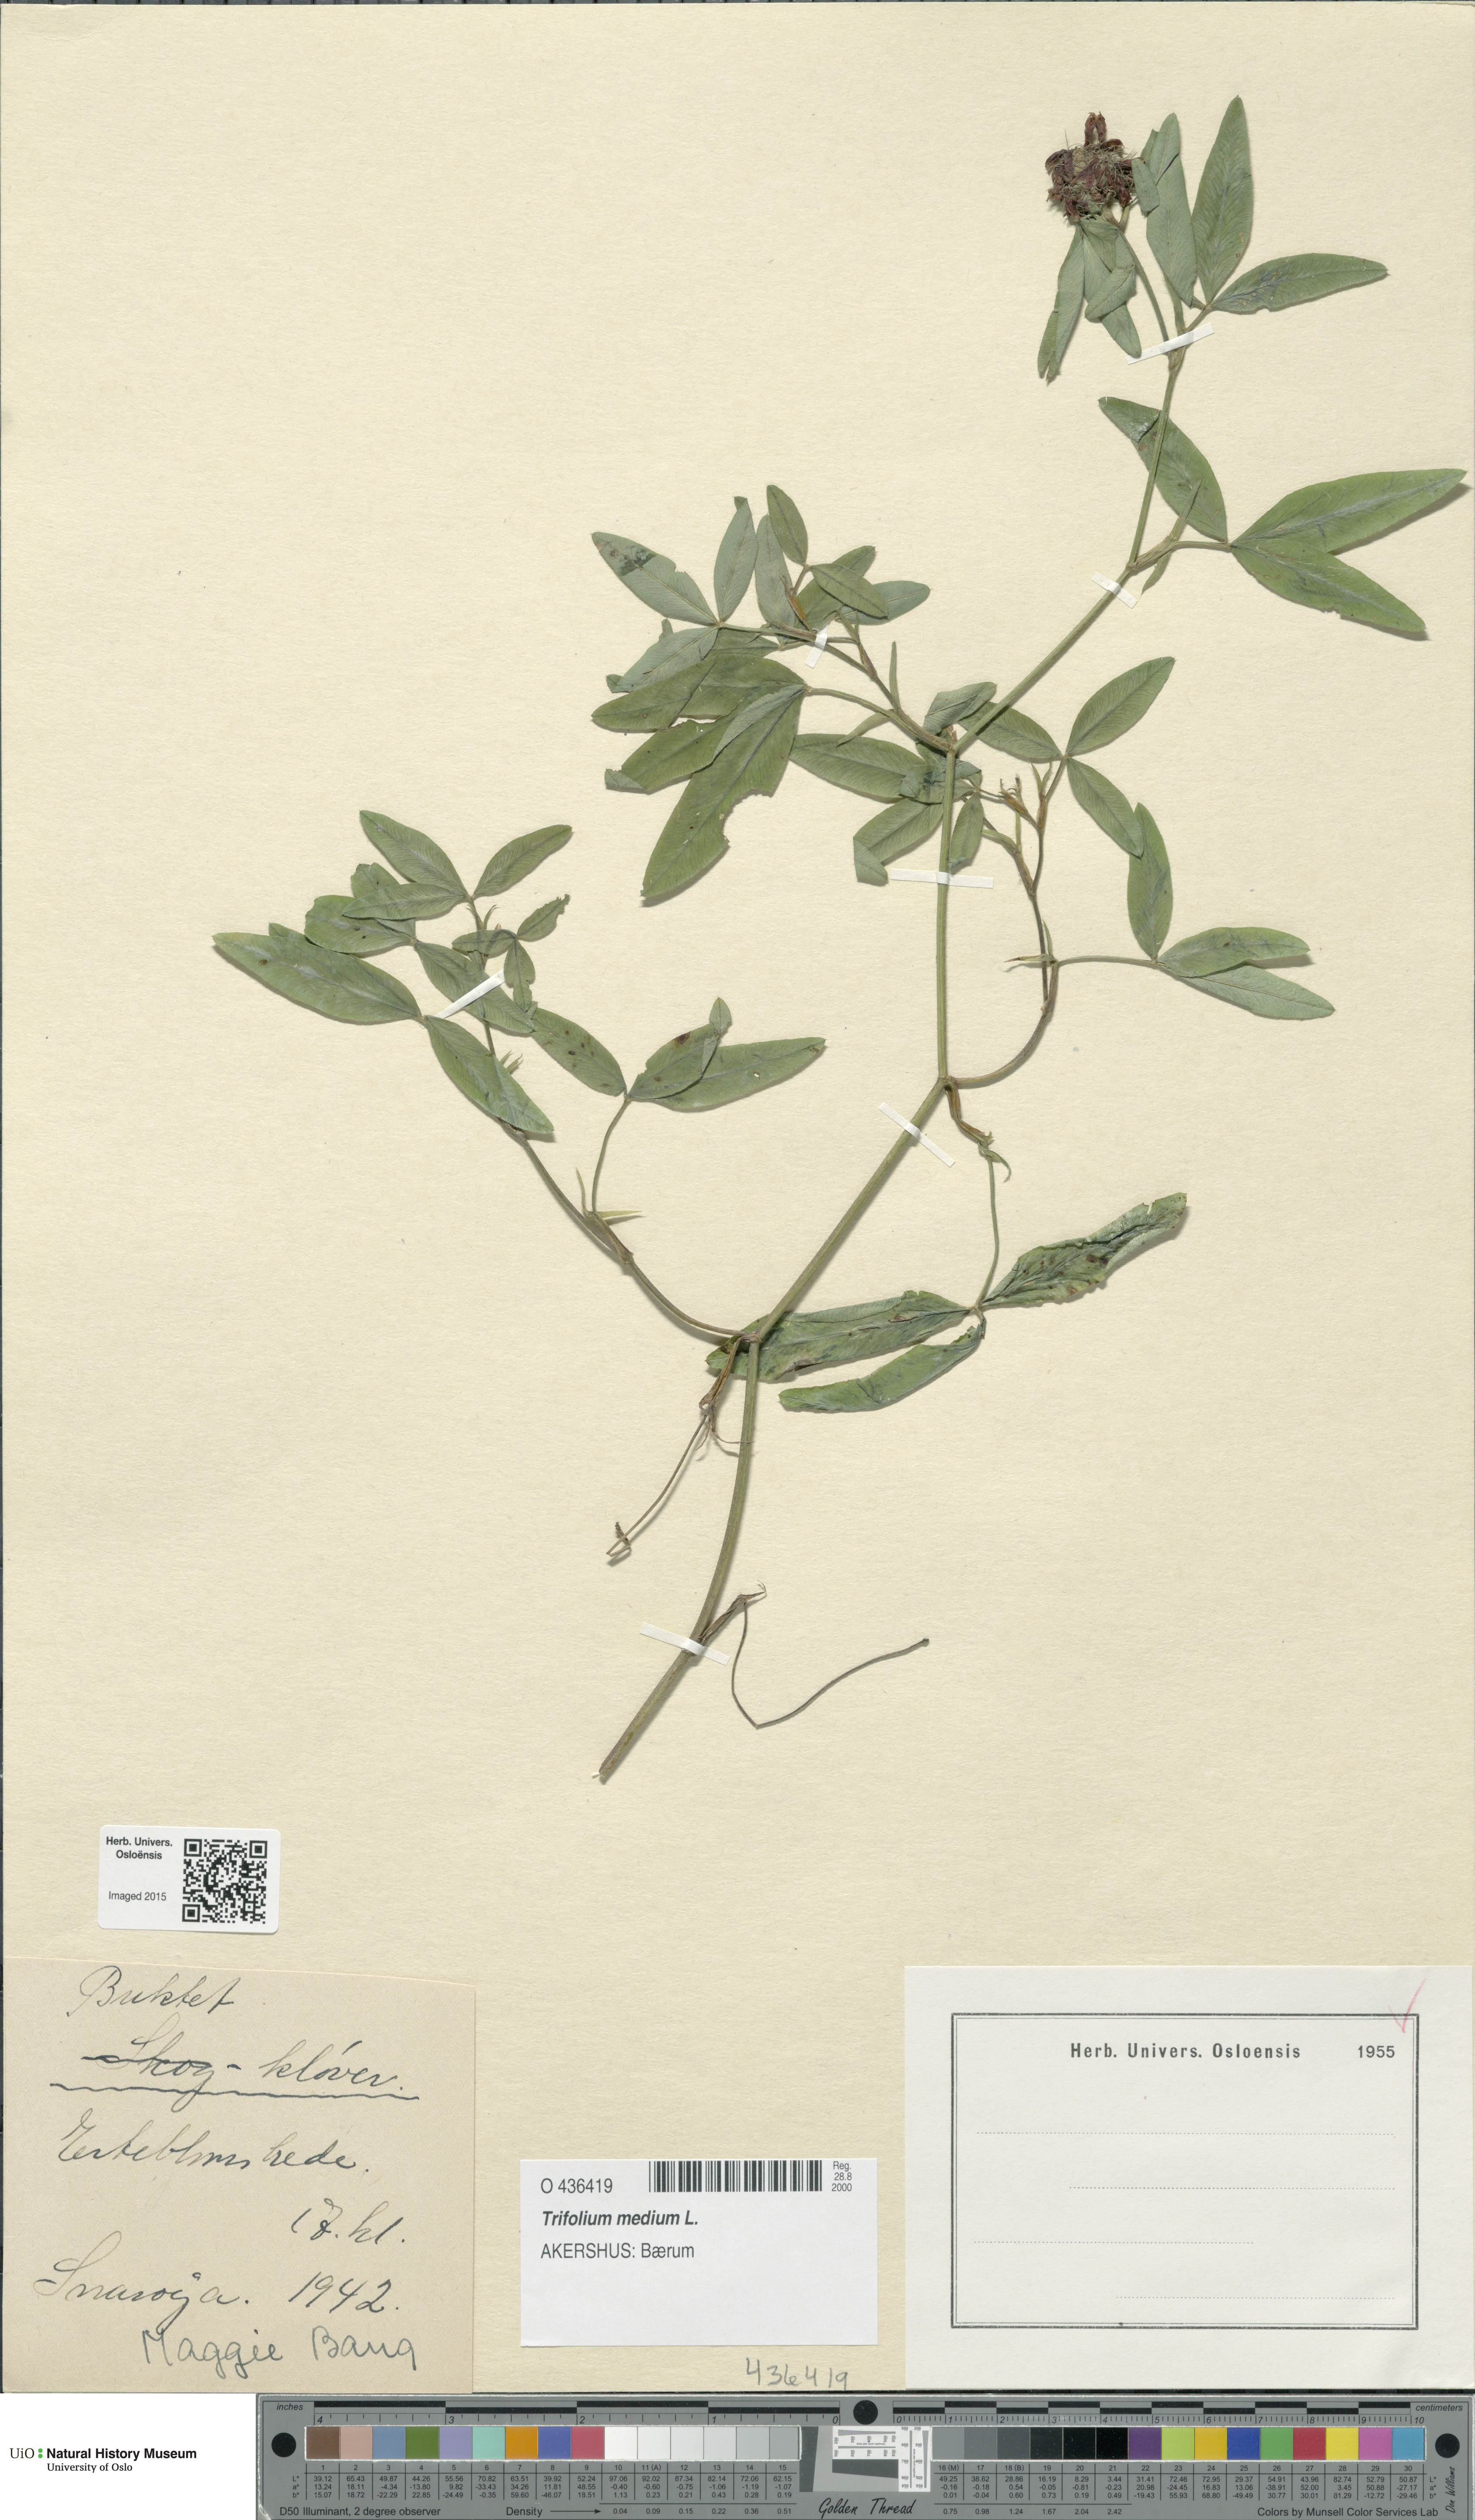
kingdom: Plantae
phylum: Tracheophyta
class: Magnoliopsida
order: Fabales
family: Fabaceae
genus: Trifolium
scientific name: Trifolium medium
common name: Zigzag clover
